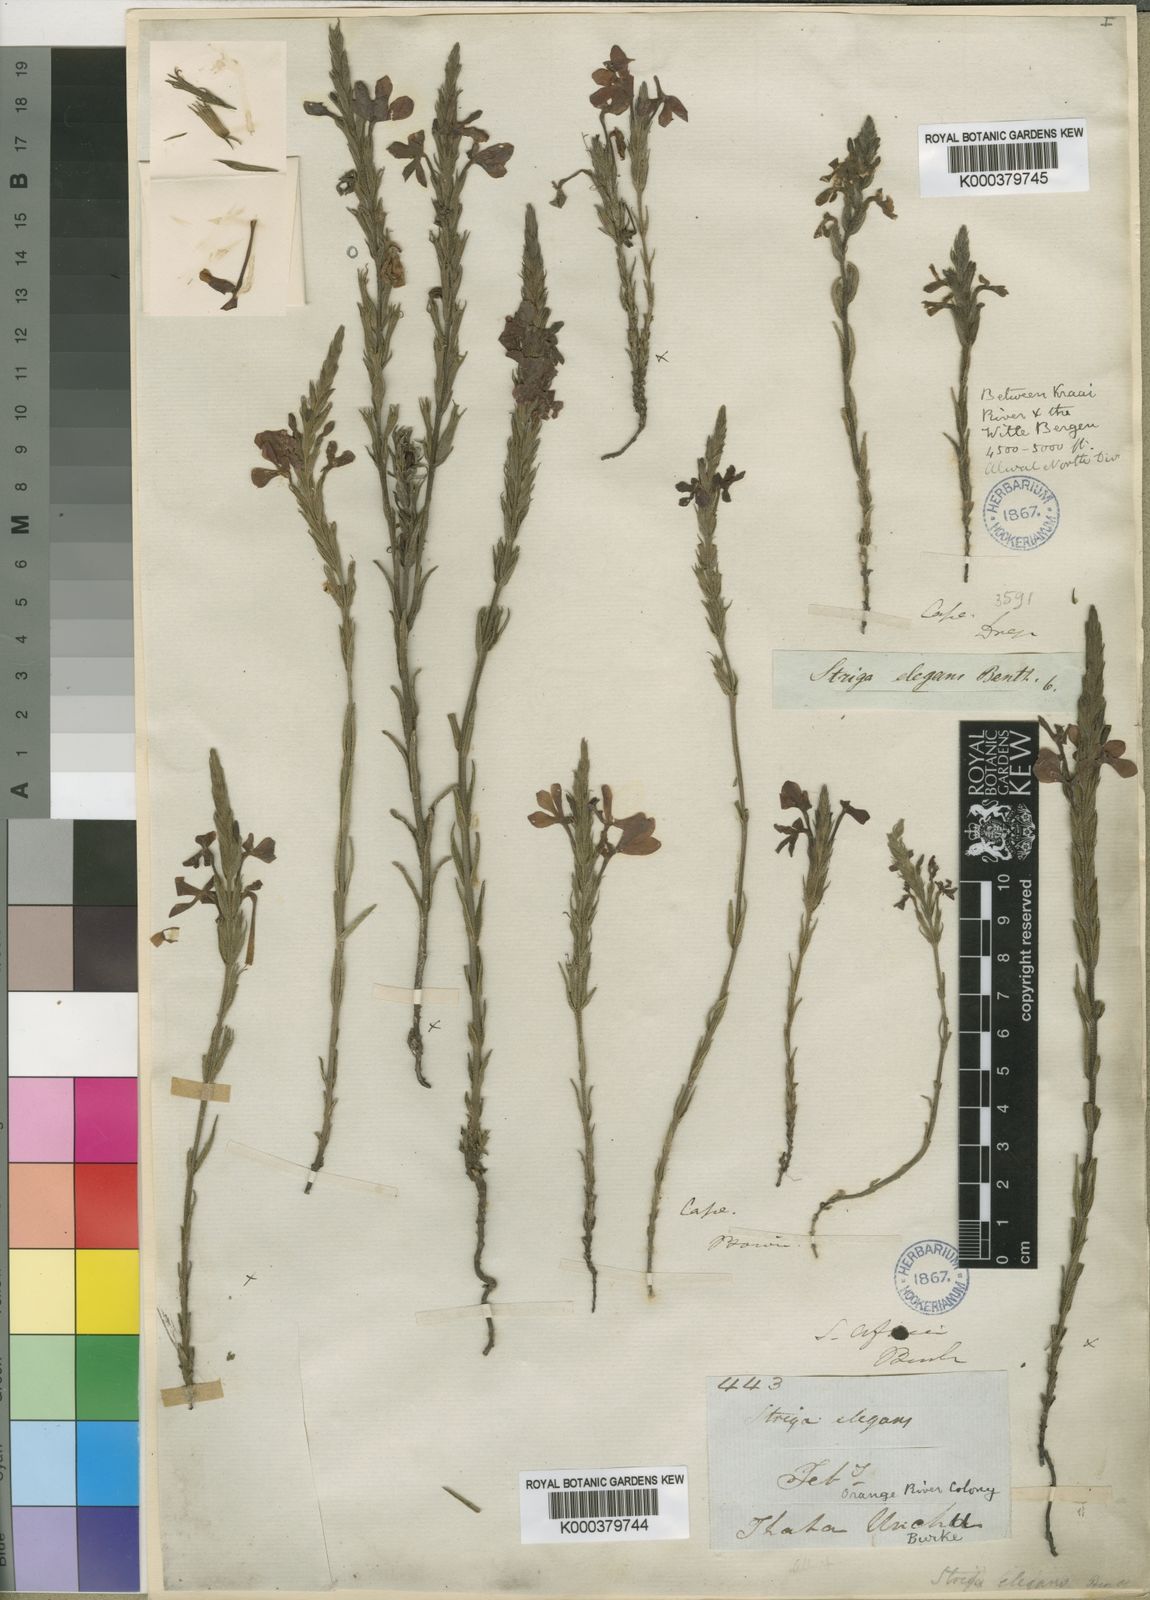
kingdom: Plantae
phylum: Tracheophyta
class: Magnoliopsida
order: Lamiales
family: Orobanchaceae
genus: Striga
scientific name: Striga elegans
